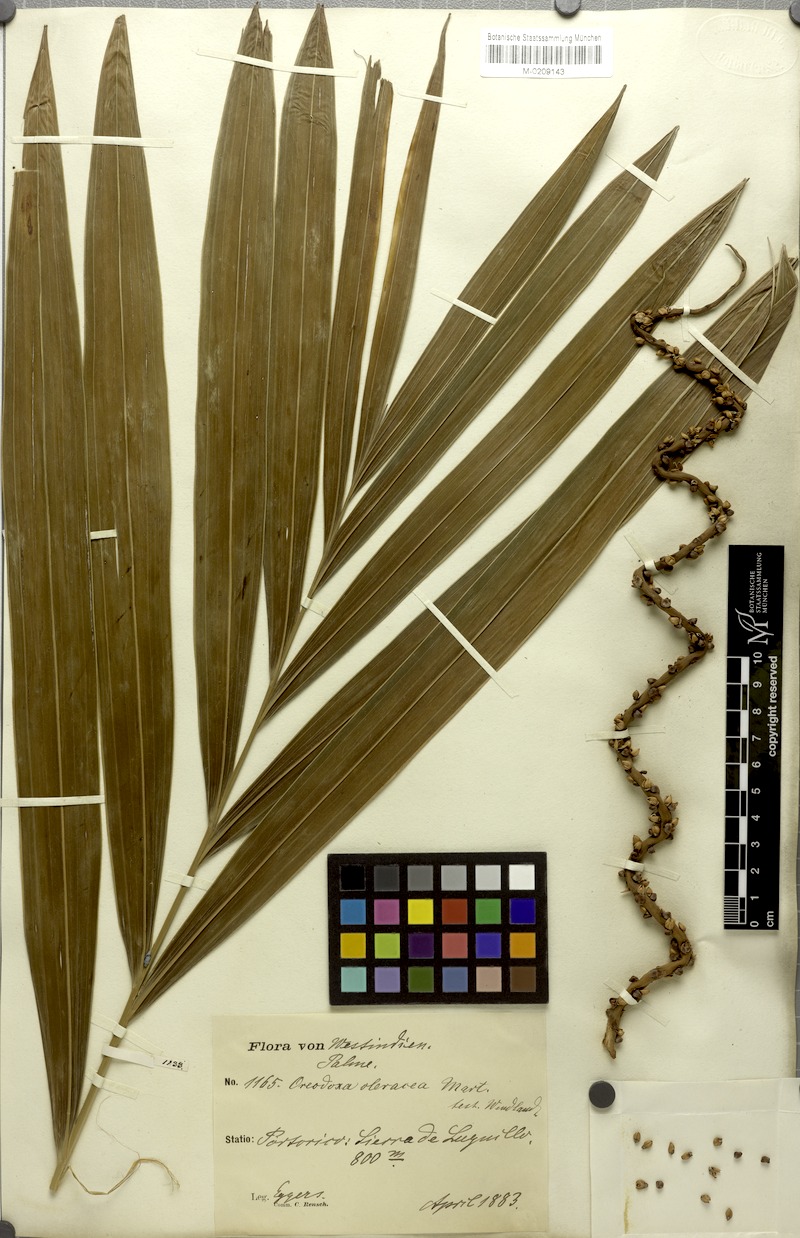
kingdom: Plantae
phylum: Tracheophyta
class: Liliopsida
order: Arecales
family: Arecaceae
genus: Roystonea
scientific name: Roystonea oleracea
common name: South american royal palm
